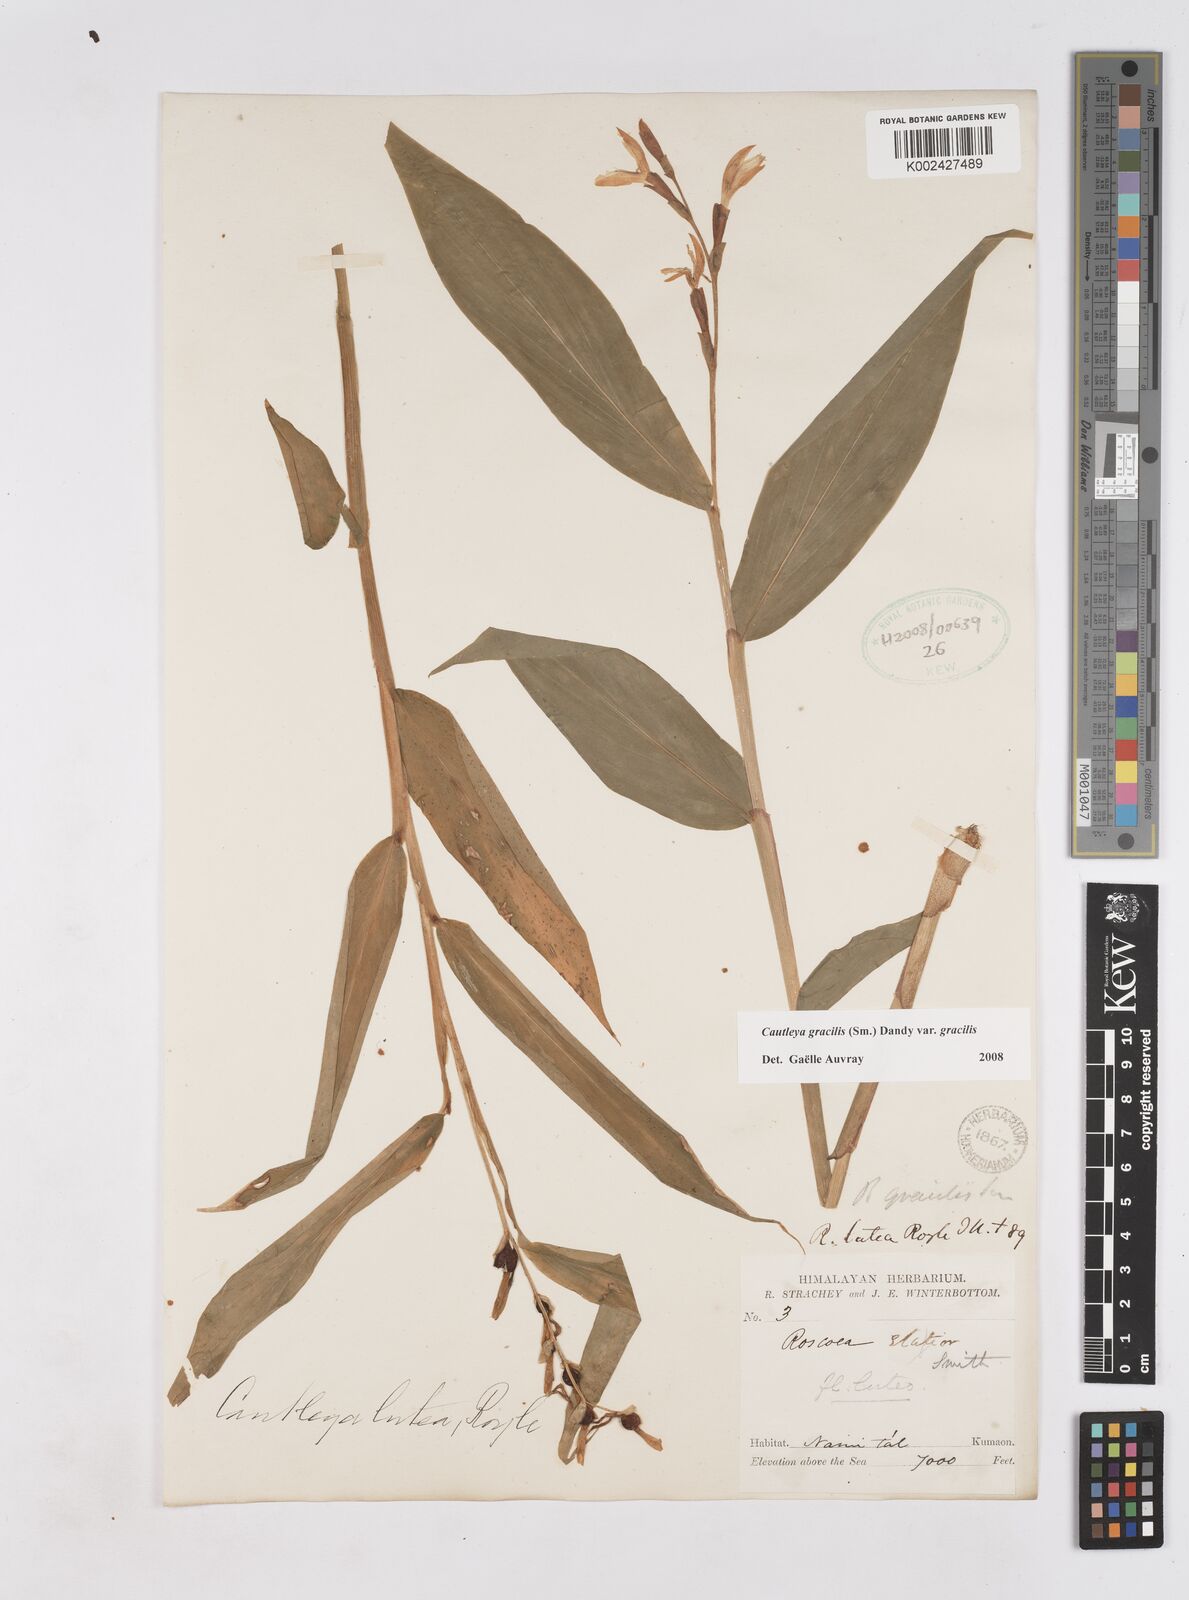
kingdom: Plantae
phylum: Tracheophyta
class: Liliopsida
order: Zingiberales
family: Zingiberaceae
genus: Cautleya
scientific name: Cautleya gracilis
